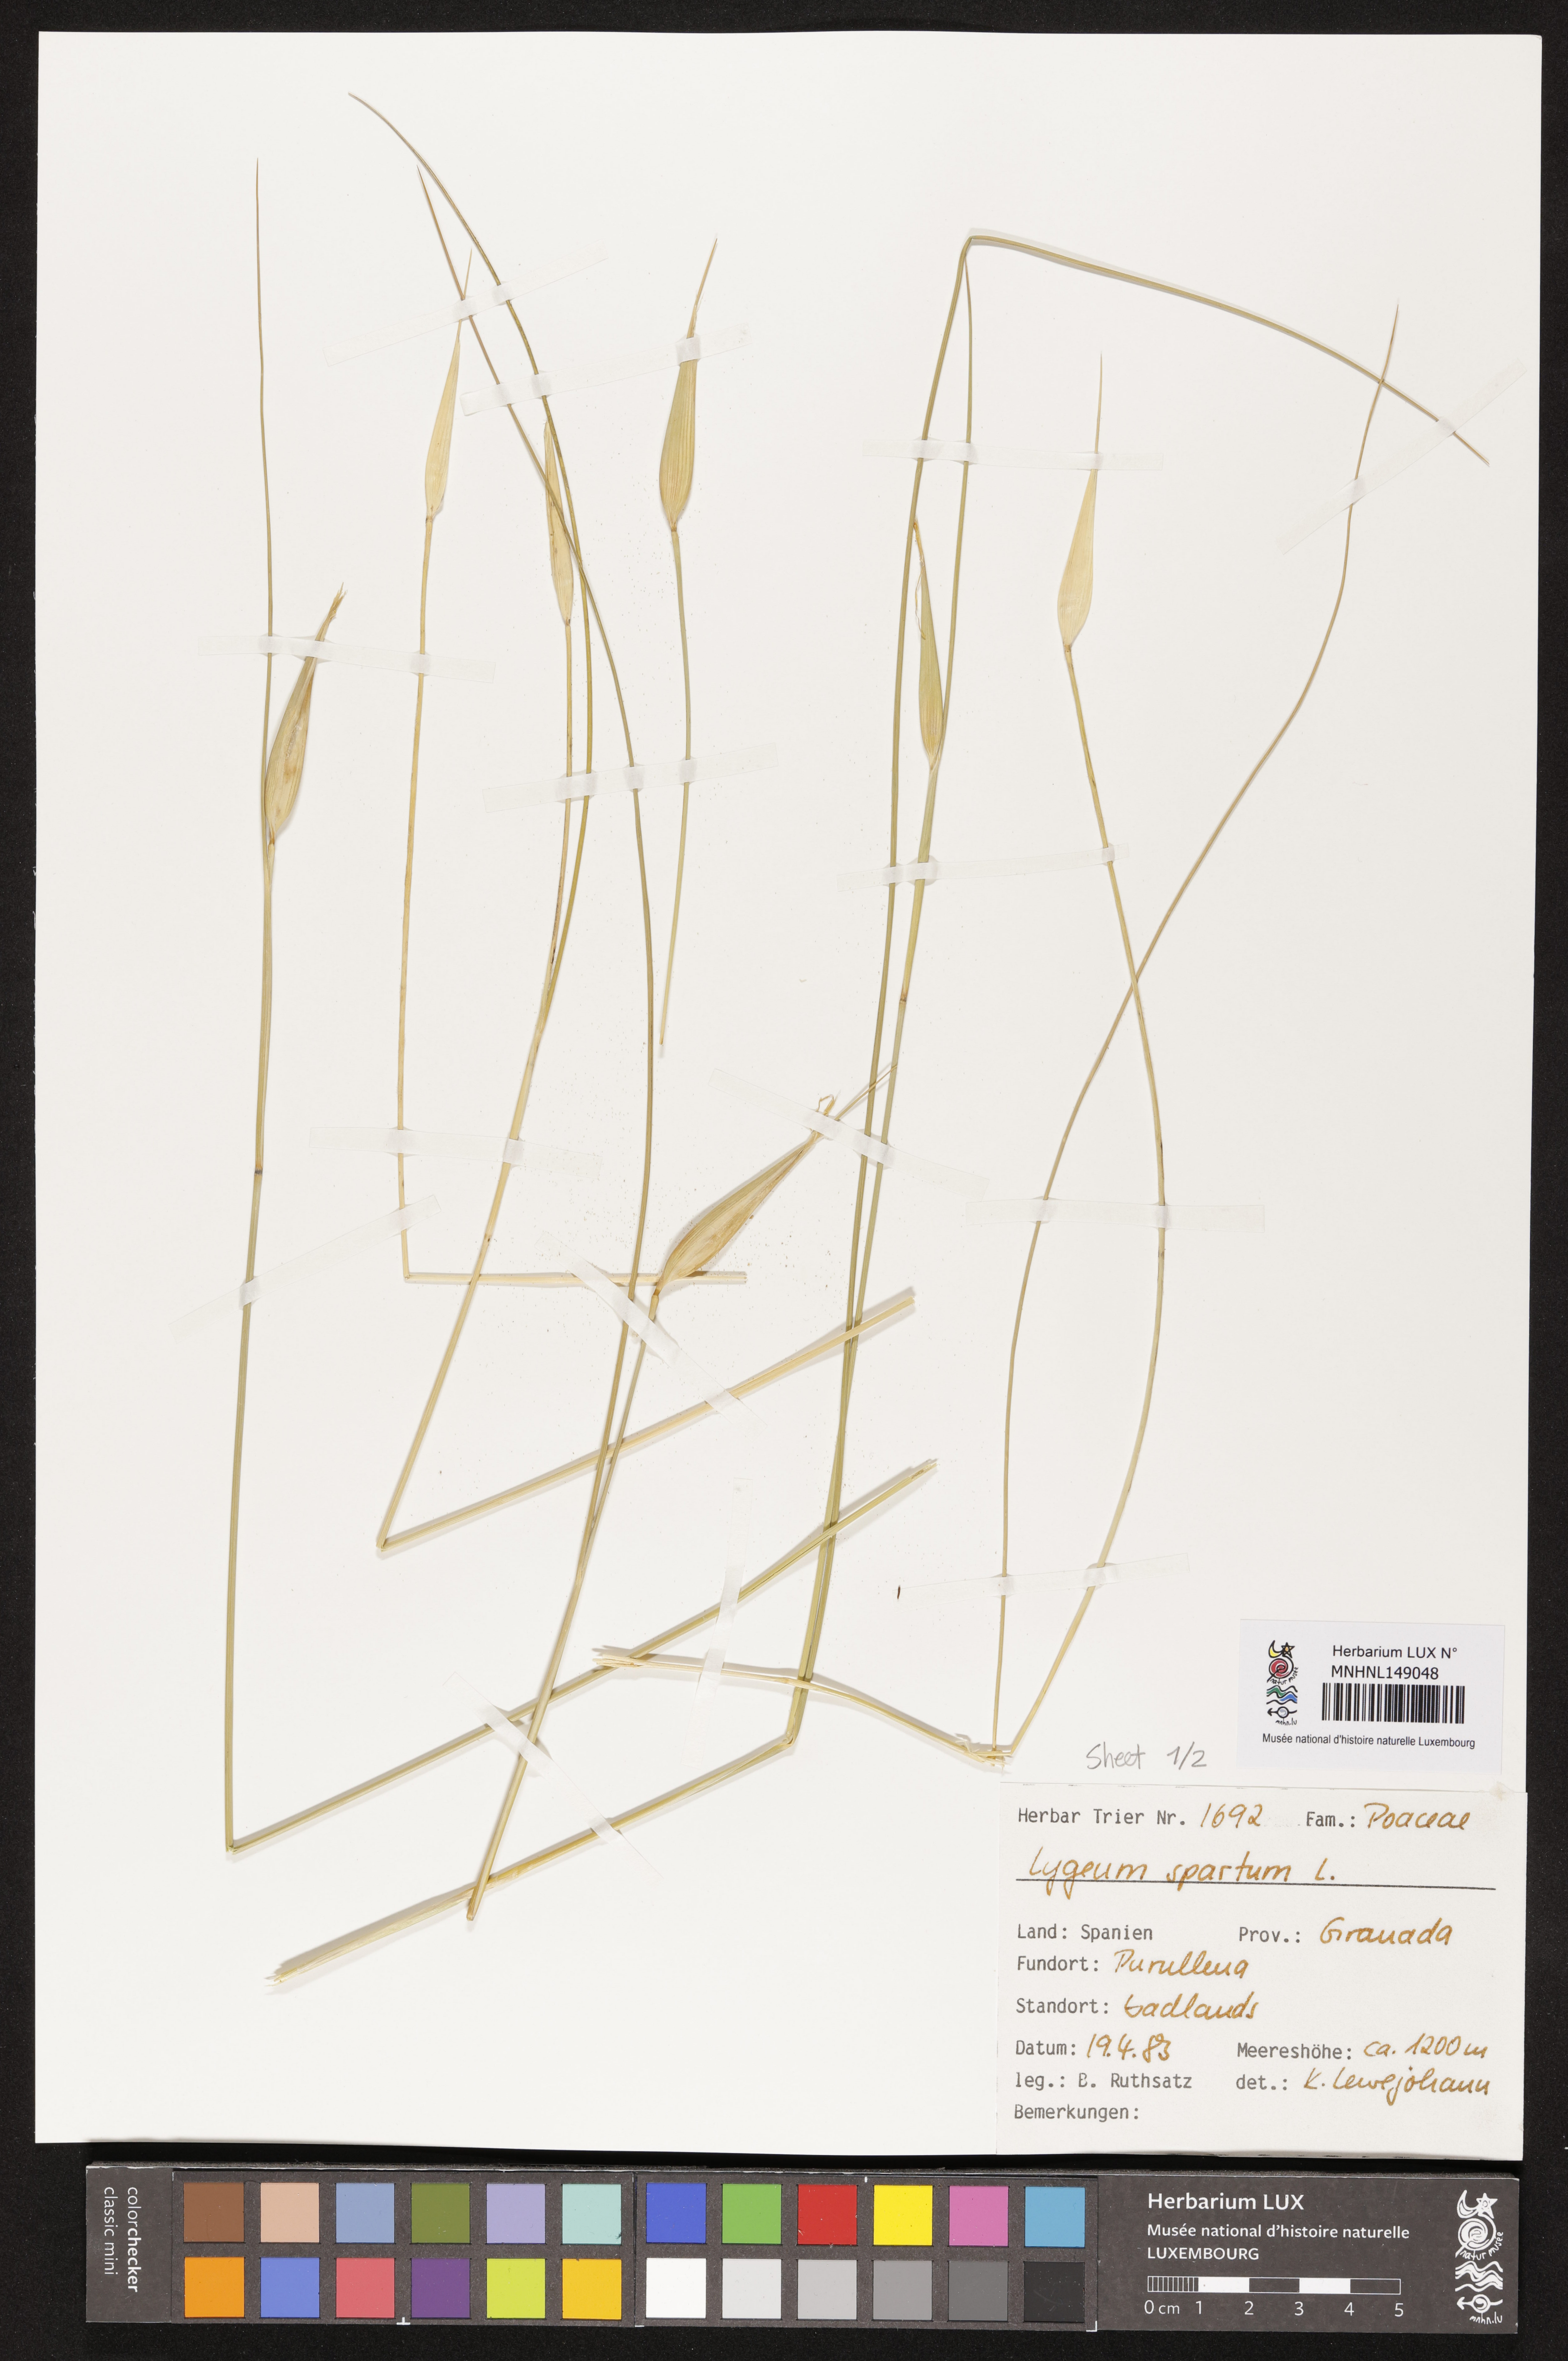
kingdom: Plantae
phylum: Tracheophyta
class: Liliopsida
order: Poales
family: Poaceae
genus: Lygeum
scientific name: Lygeum spartum
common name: Albardine
